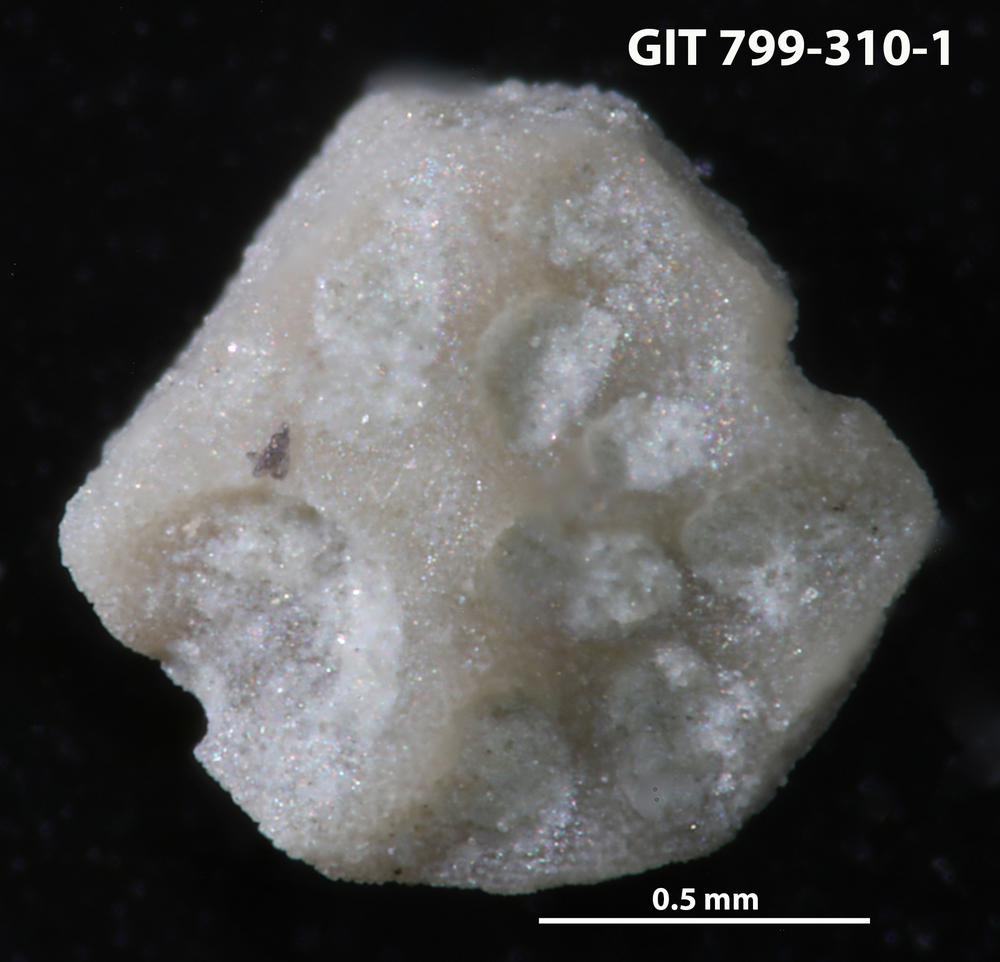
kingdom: Animalia
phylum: Echinodermata
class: Echinoidea
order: Bothriocidaroida
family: Bothriocidaridae
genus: Neobothriocidaris
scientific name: Neobothriocidaris
